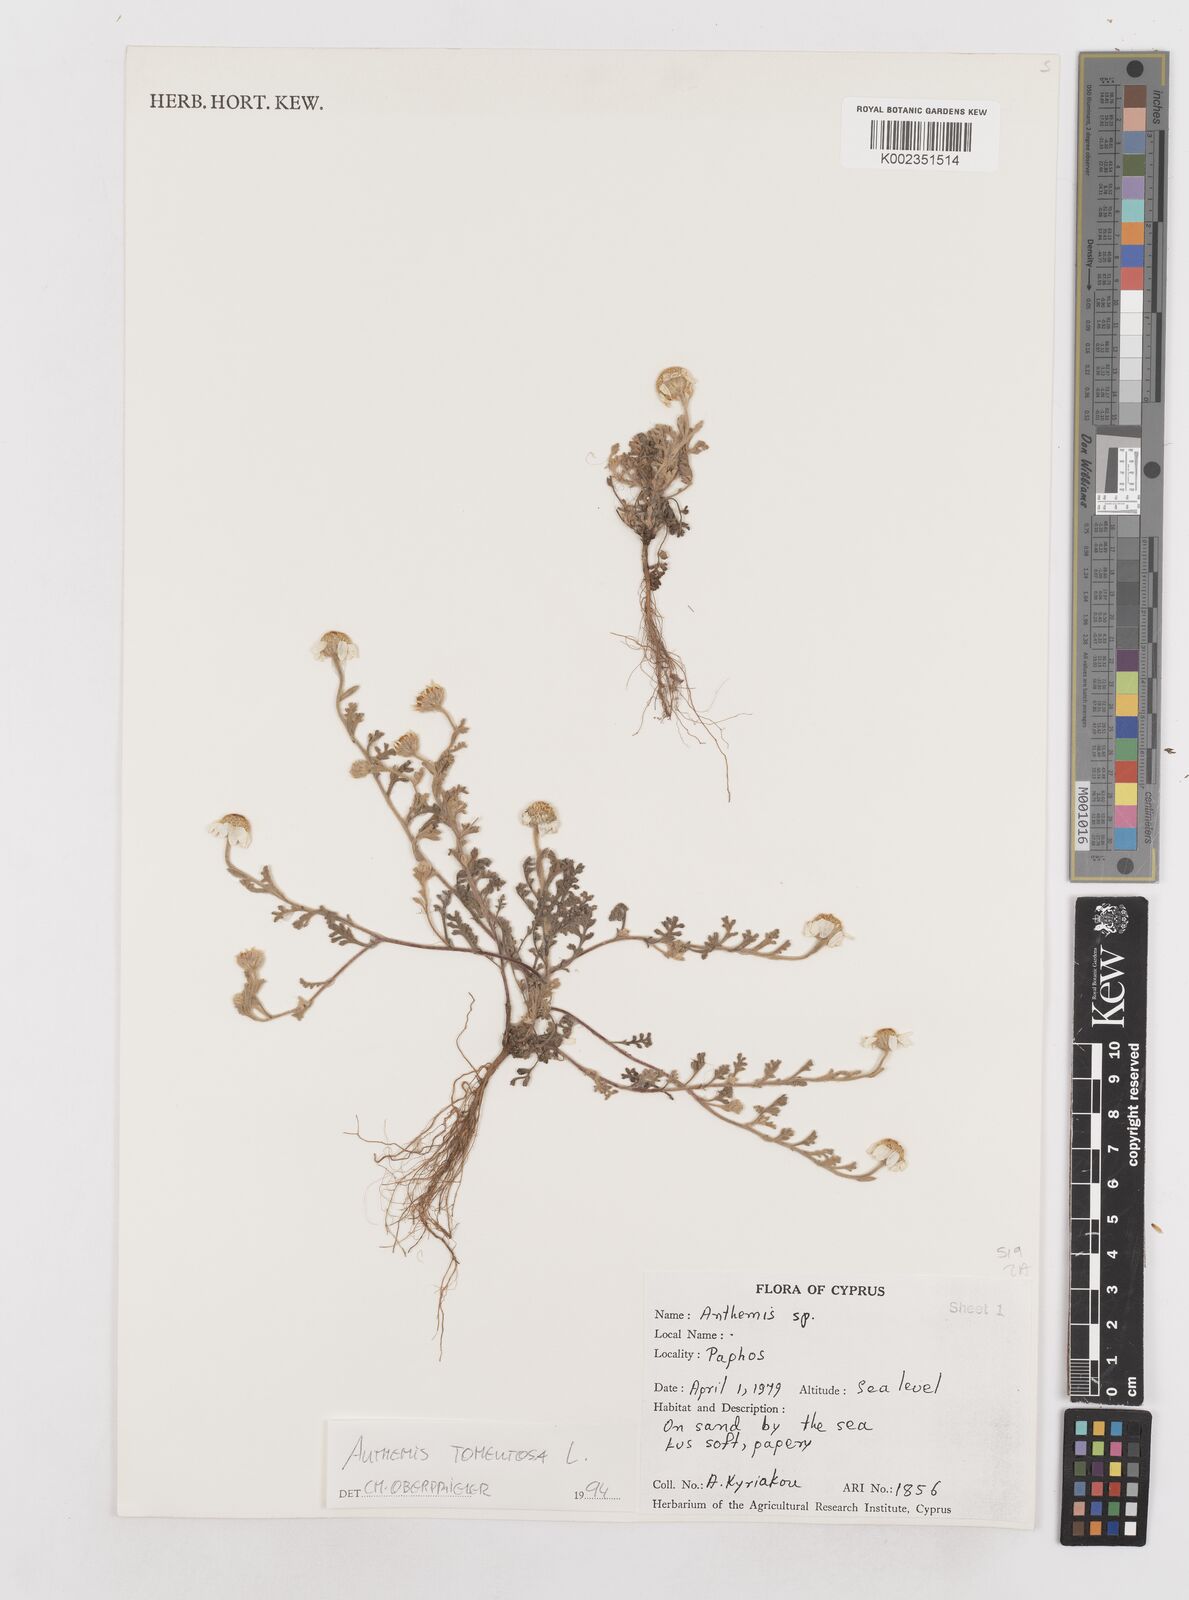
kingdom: Plantae
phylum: Tracheophyta
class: Magnoliopsida
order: Asterales
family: Asteraceae
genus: Anthemis
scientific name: Anthemis tomentosa
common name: Woolly chamomile
